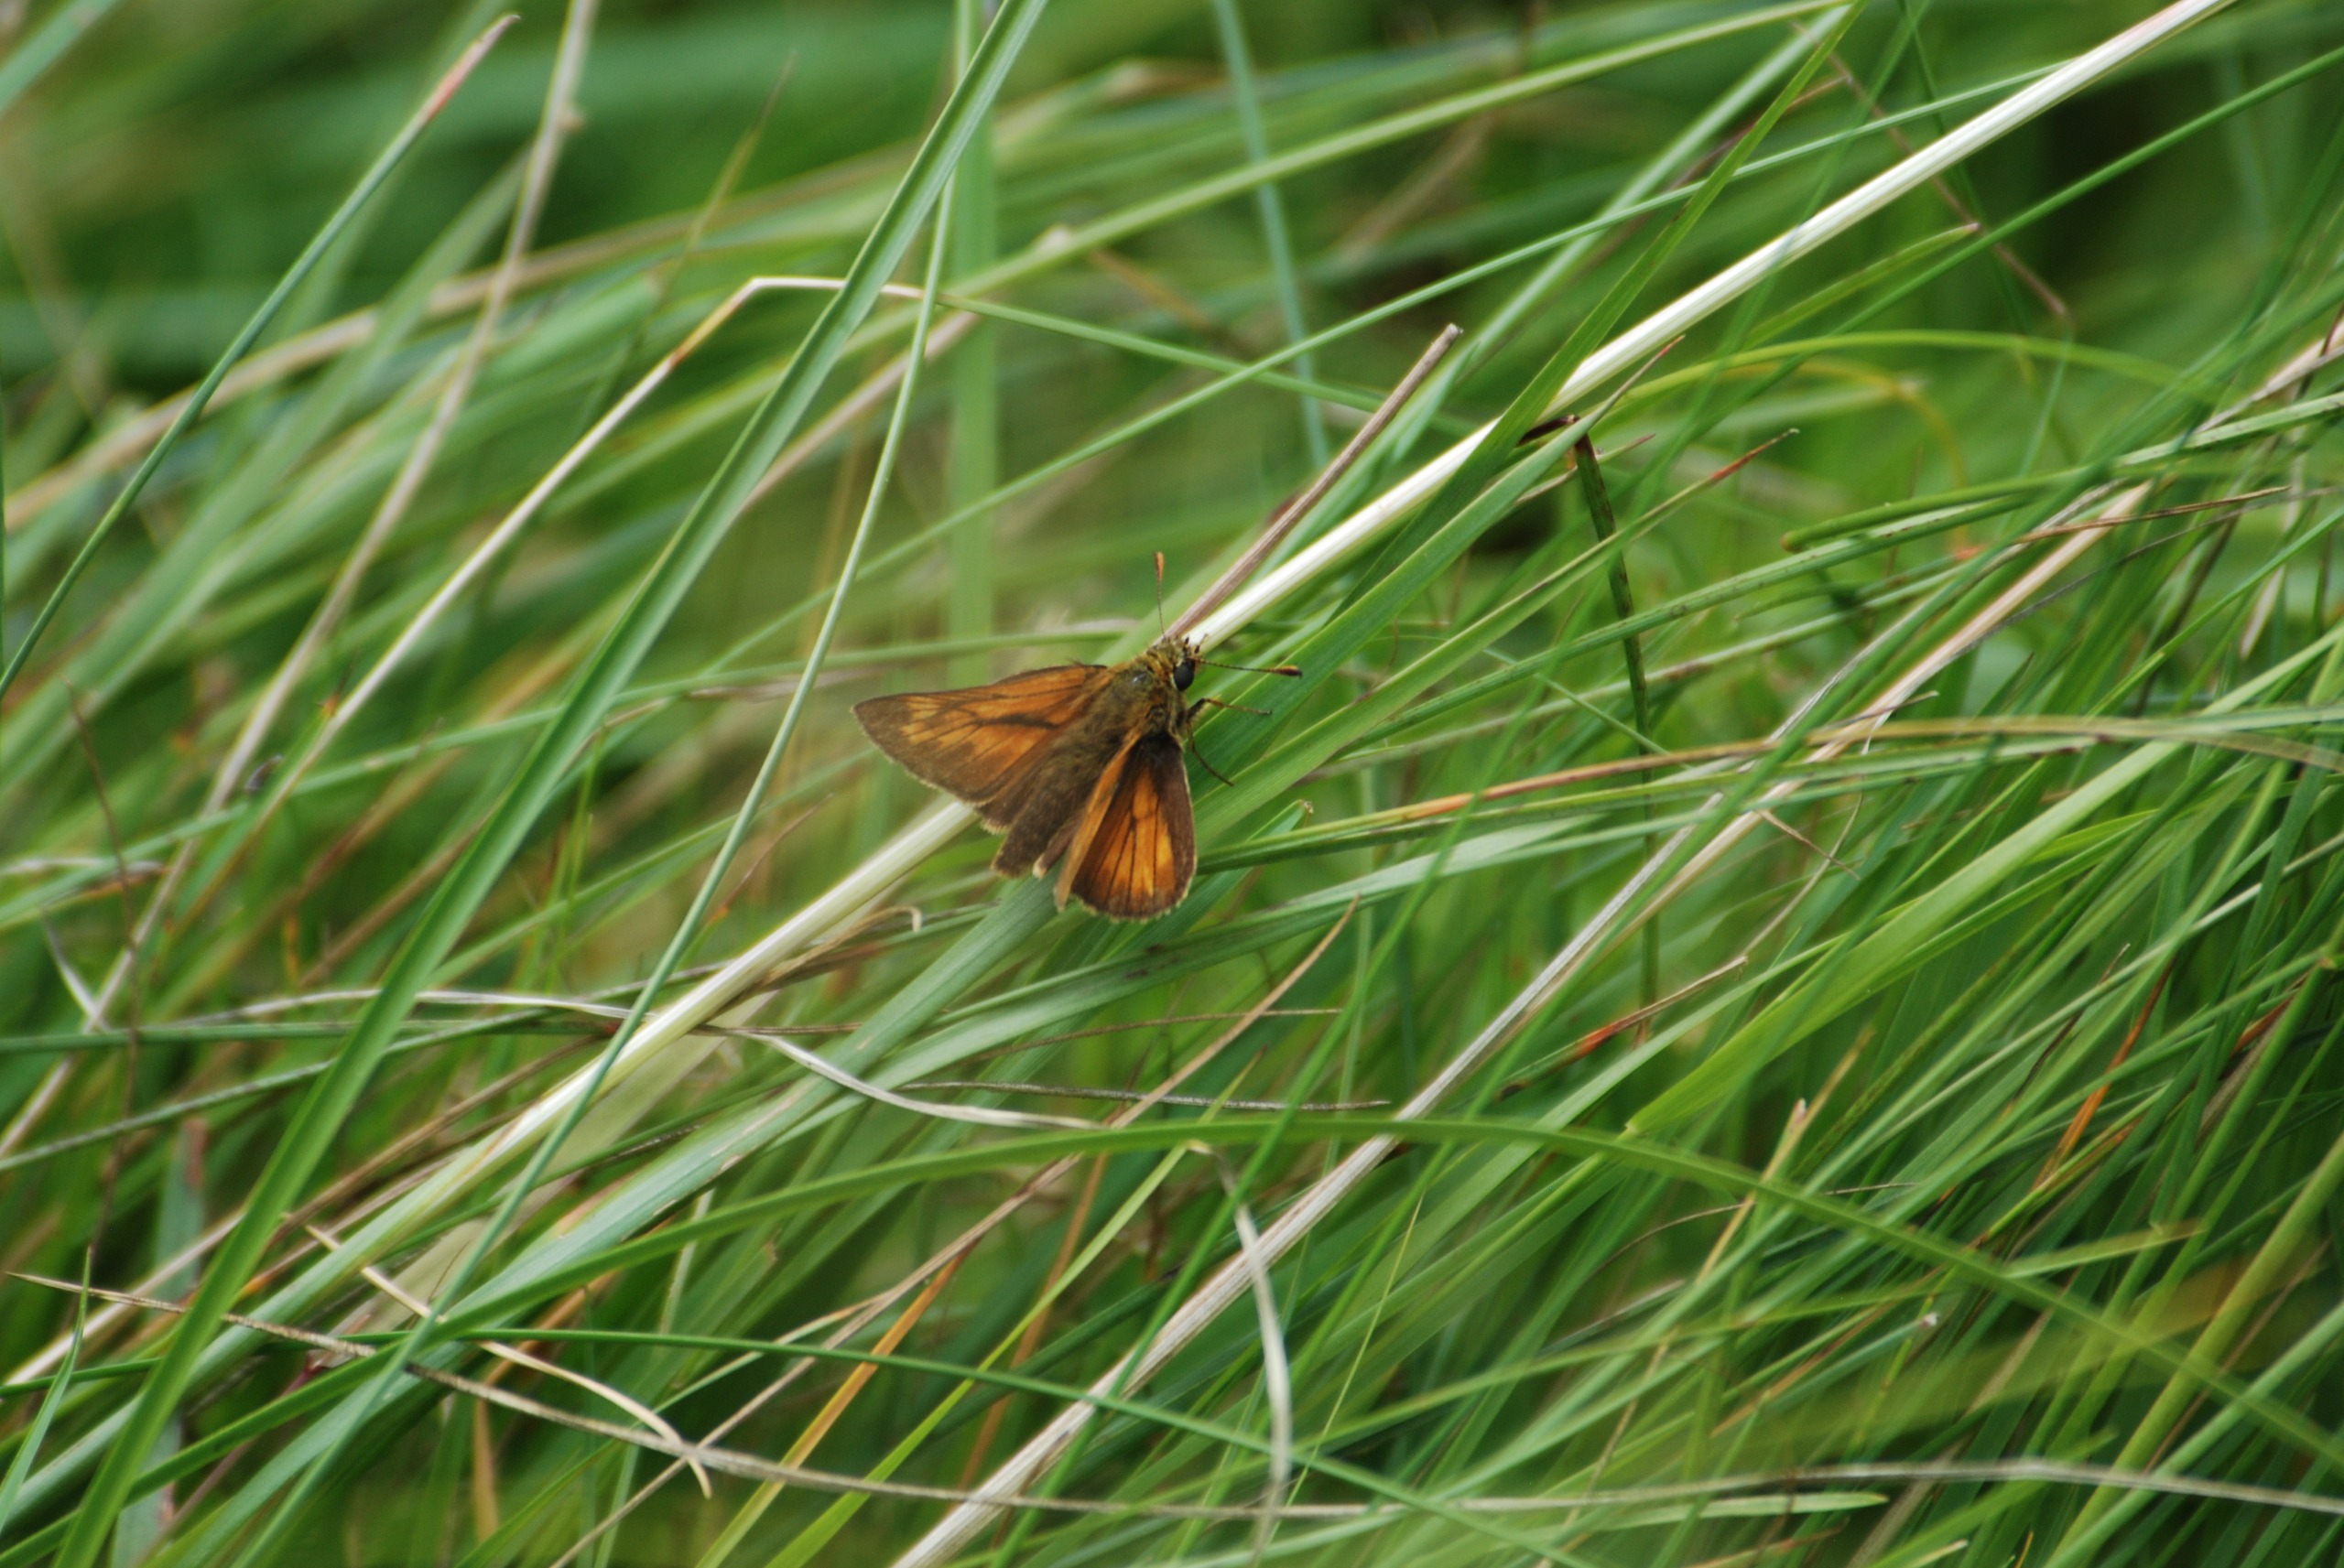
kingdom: Animalia
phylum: Arthropoda
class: Insecta
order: Lepidoptera
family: Hesperiidae
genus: Ochlodes
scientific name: Ochlodes venata
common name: Stor bredpande
